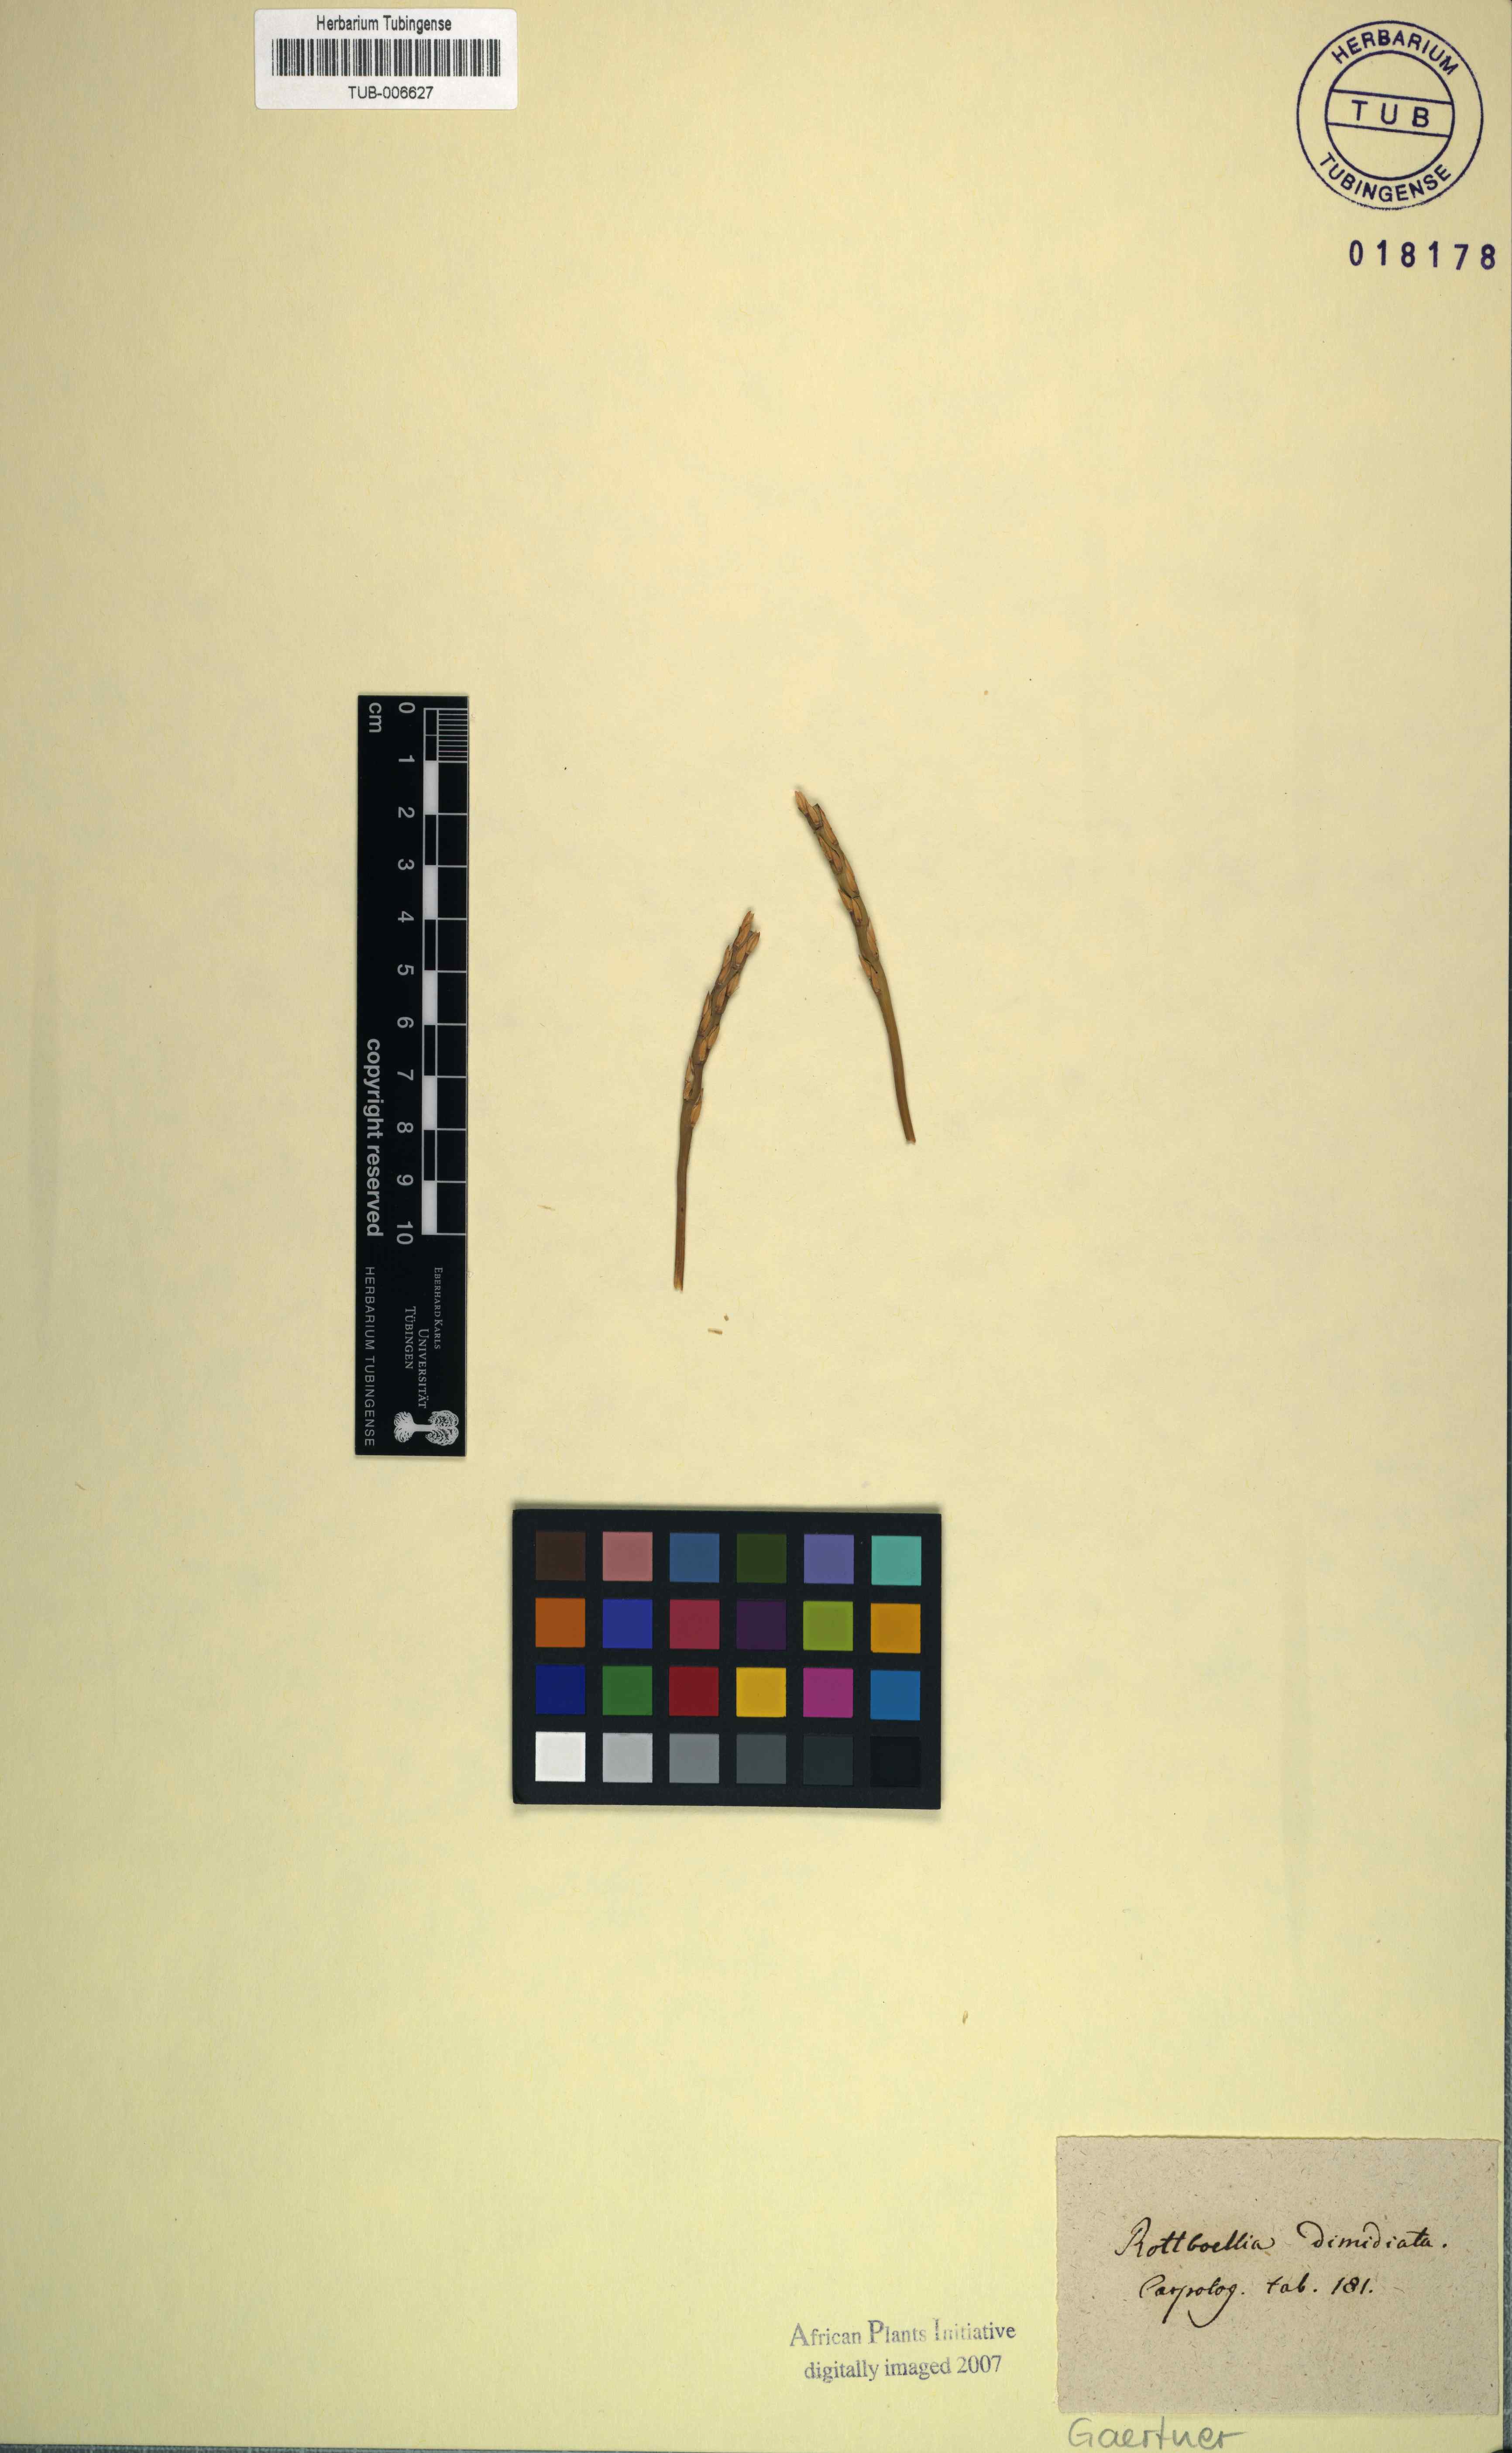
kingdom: Plantae
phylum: Tracheophyta
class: Liliopsida
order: Poales
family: Poaceae
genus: Stenotaphrum
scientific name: Stenotaphrum dimidiatum
